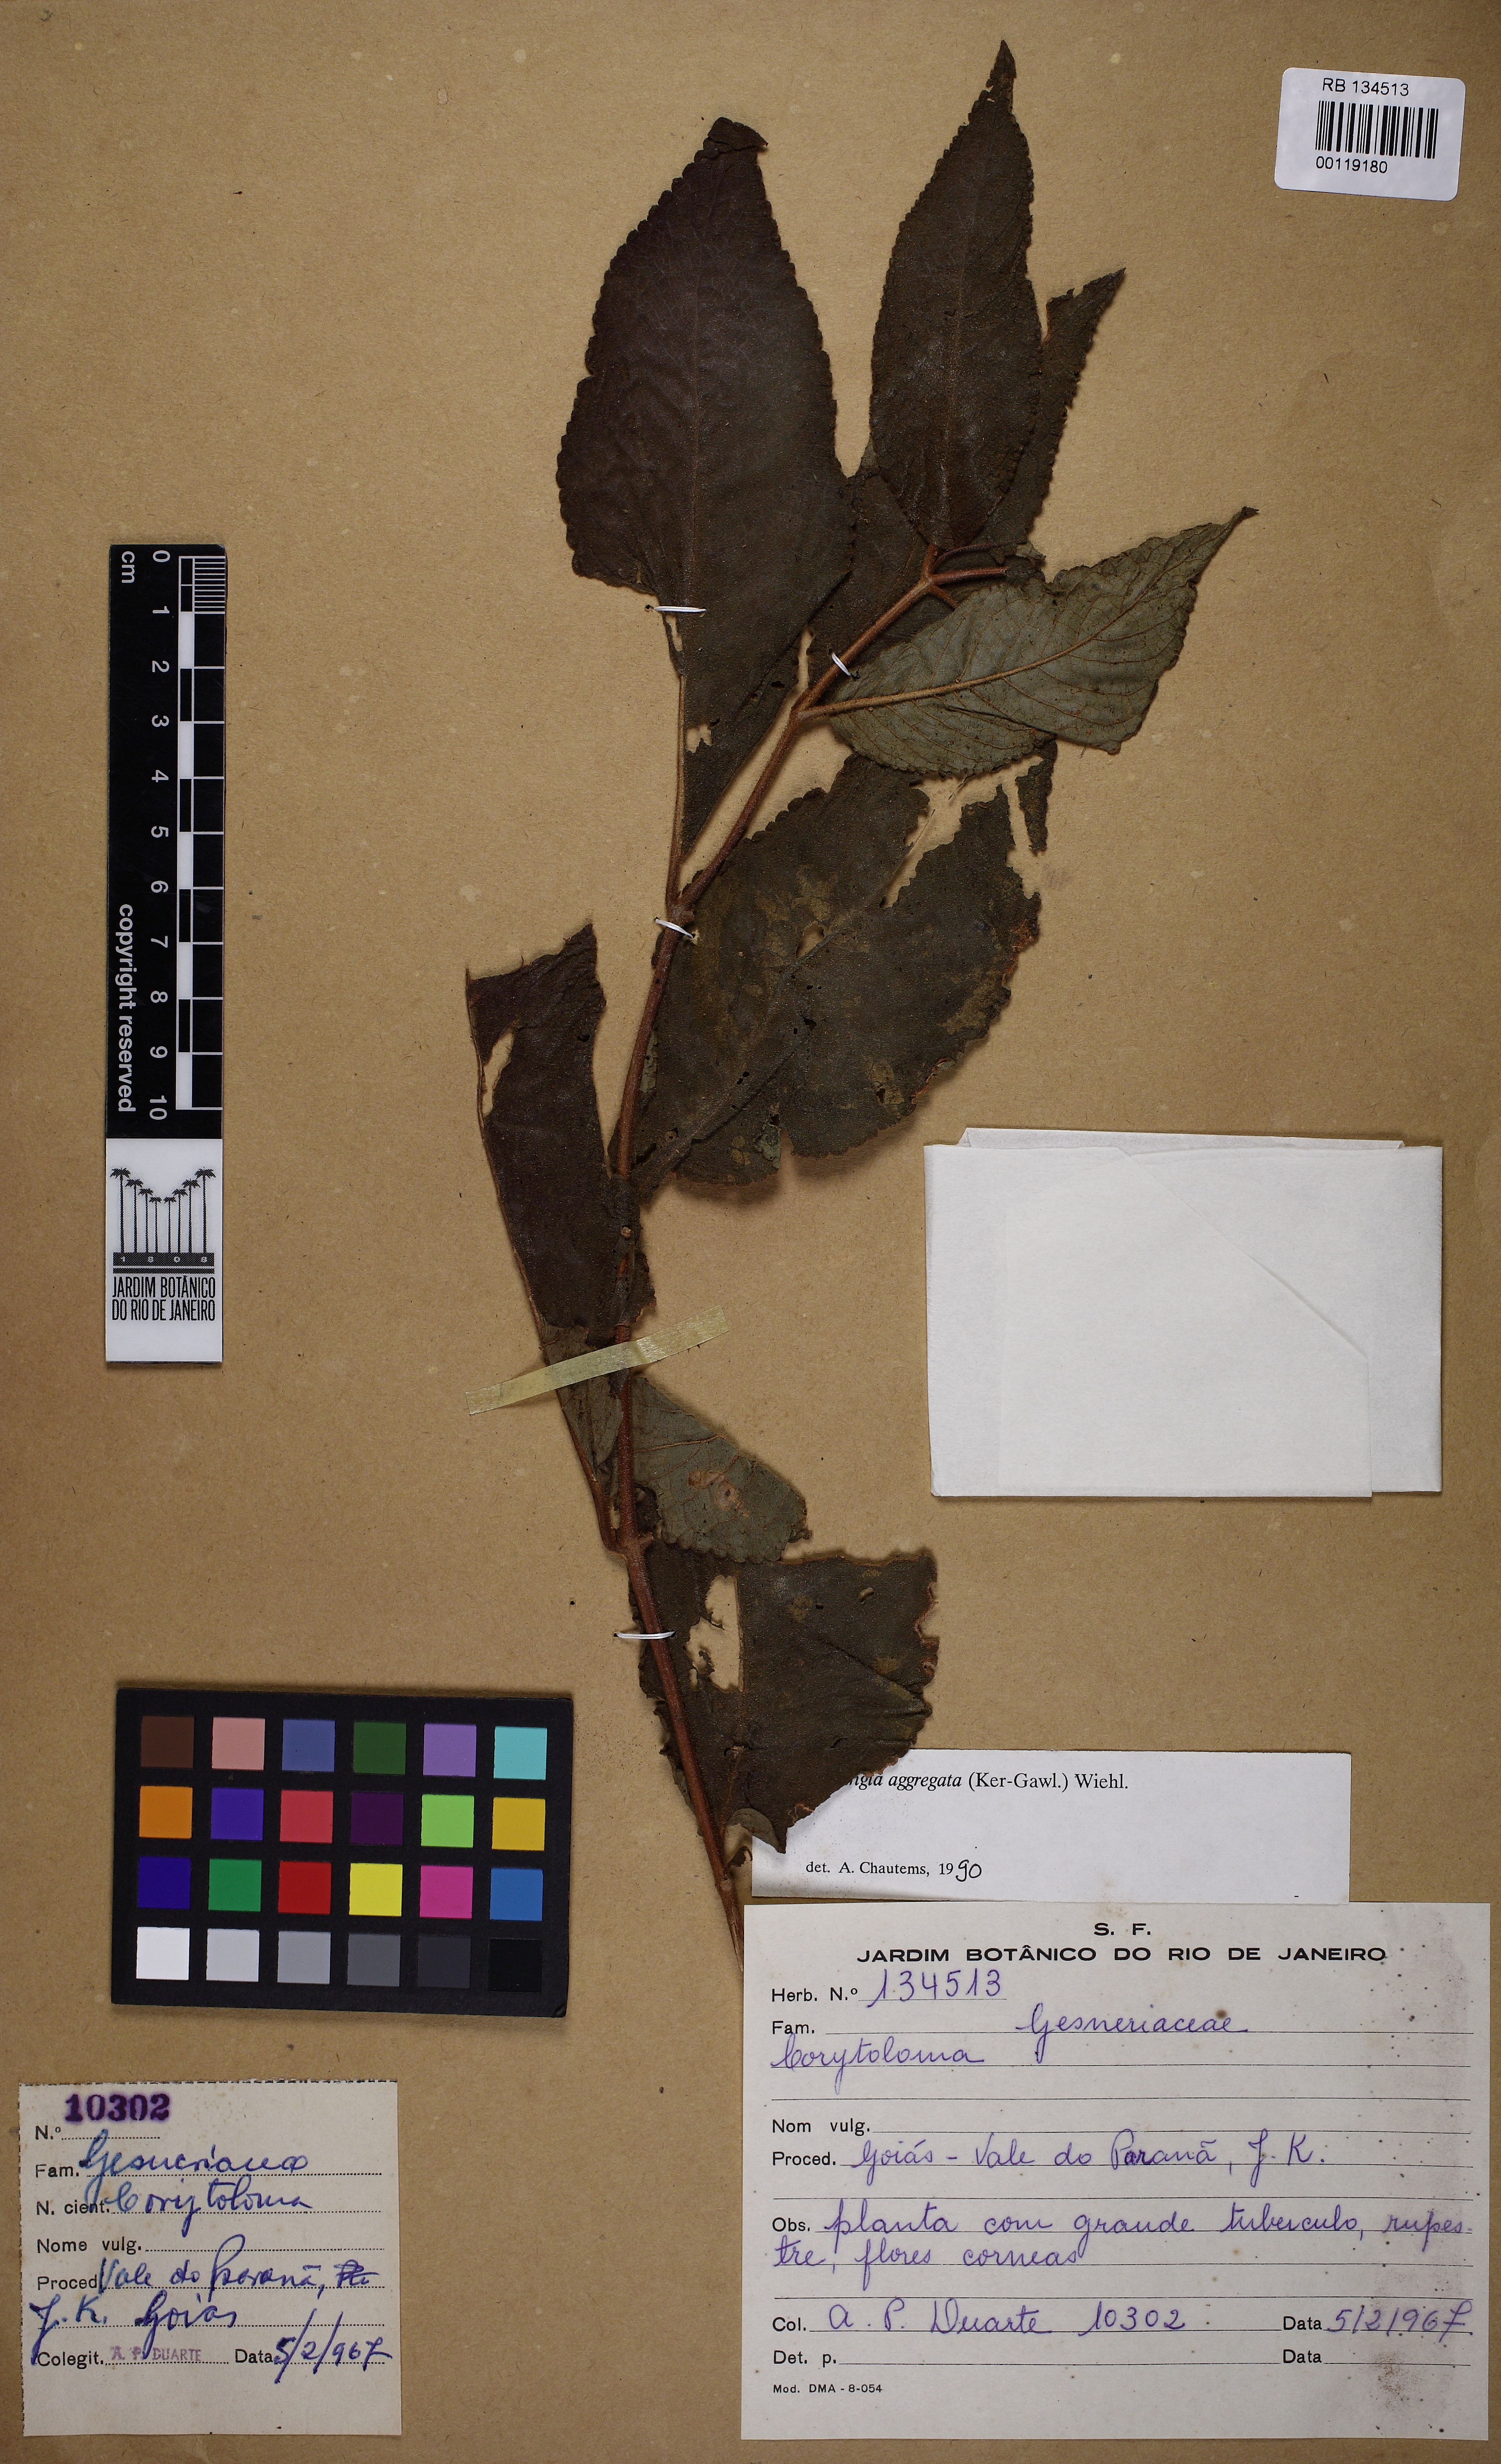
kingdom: Plantae
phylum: Tracheophyta
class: Magnoliopsida
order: Lamiales
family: Gesneriaceae
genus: Sinningia
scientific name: Sinningia aggregata
